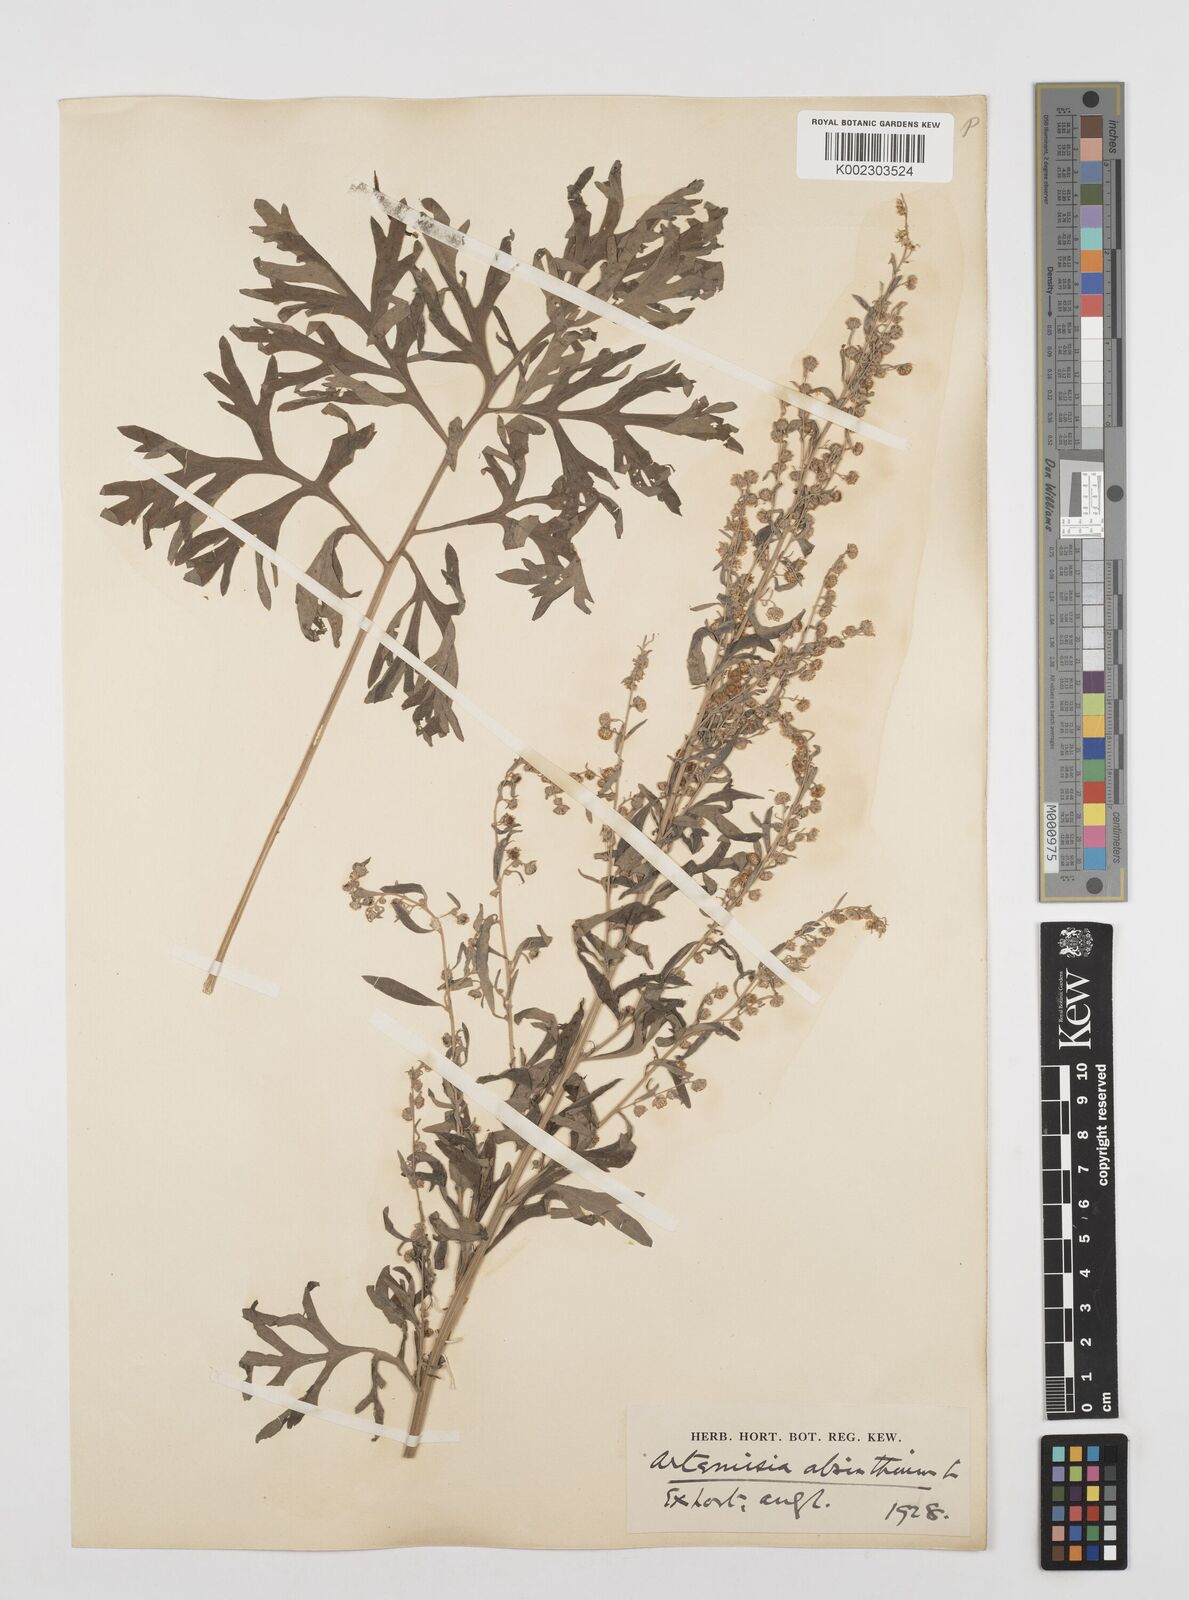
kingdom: Plantae
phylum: Tracheophyta
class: Magnoliopsida
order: Asterales
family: Asteraceae
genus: Artemisia
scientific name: Artemisia absinthium
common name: Wormwood
